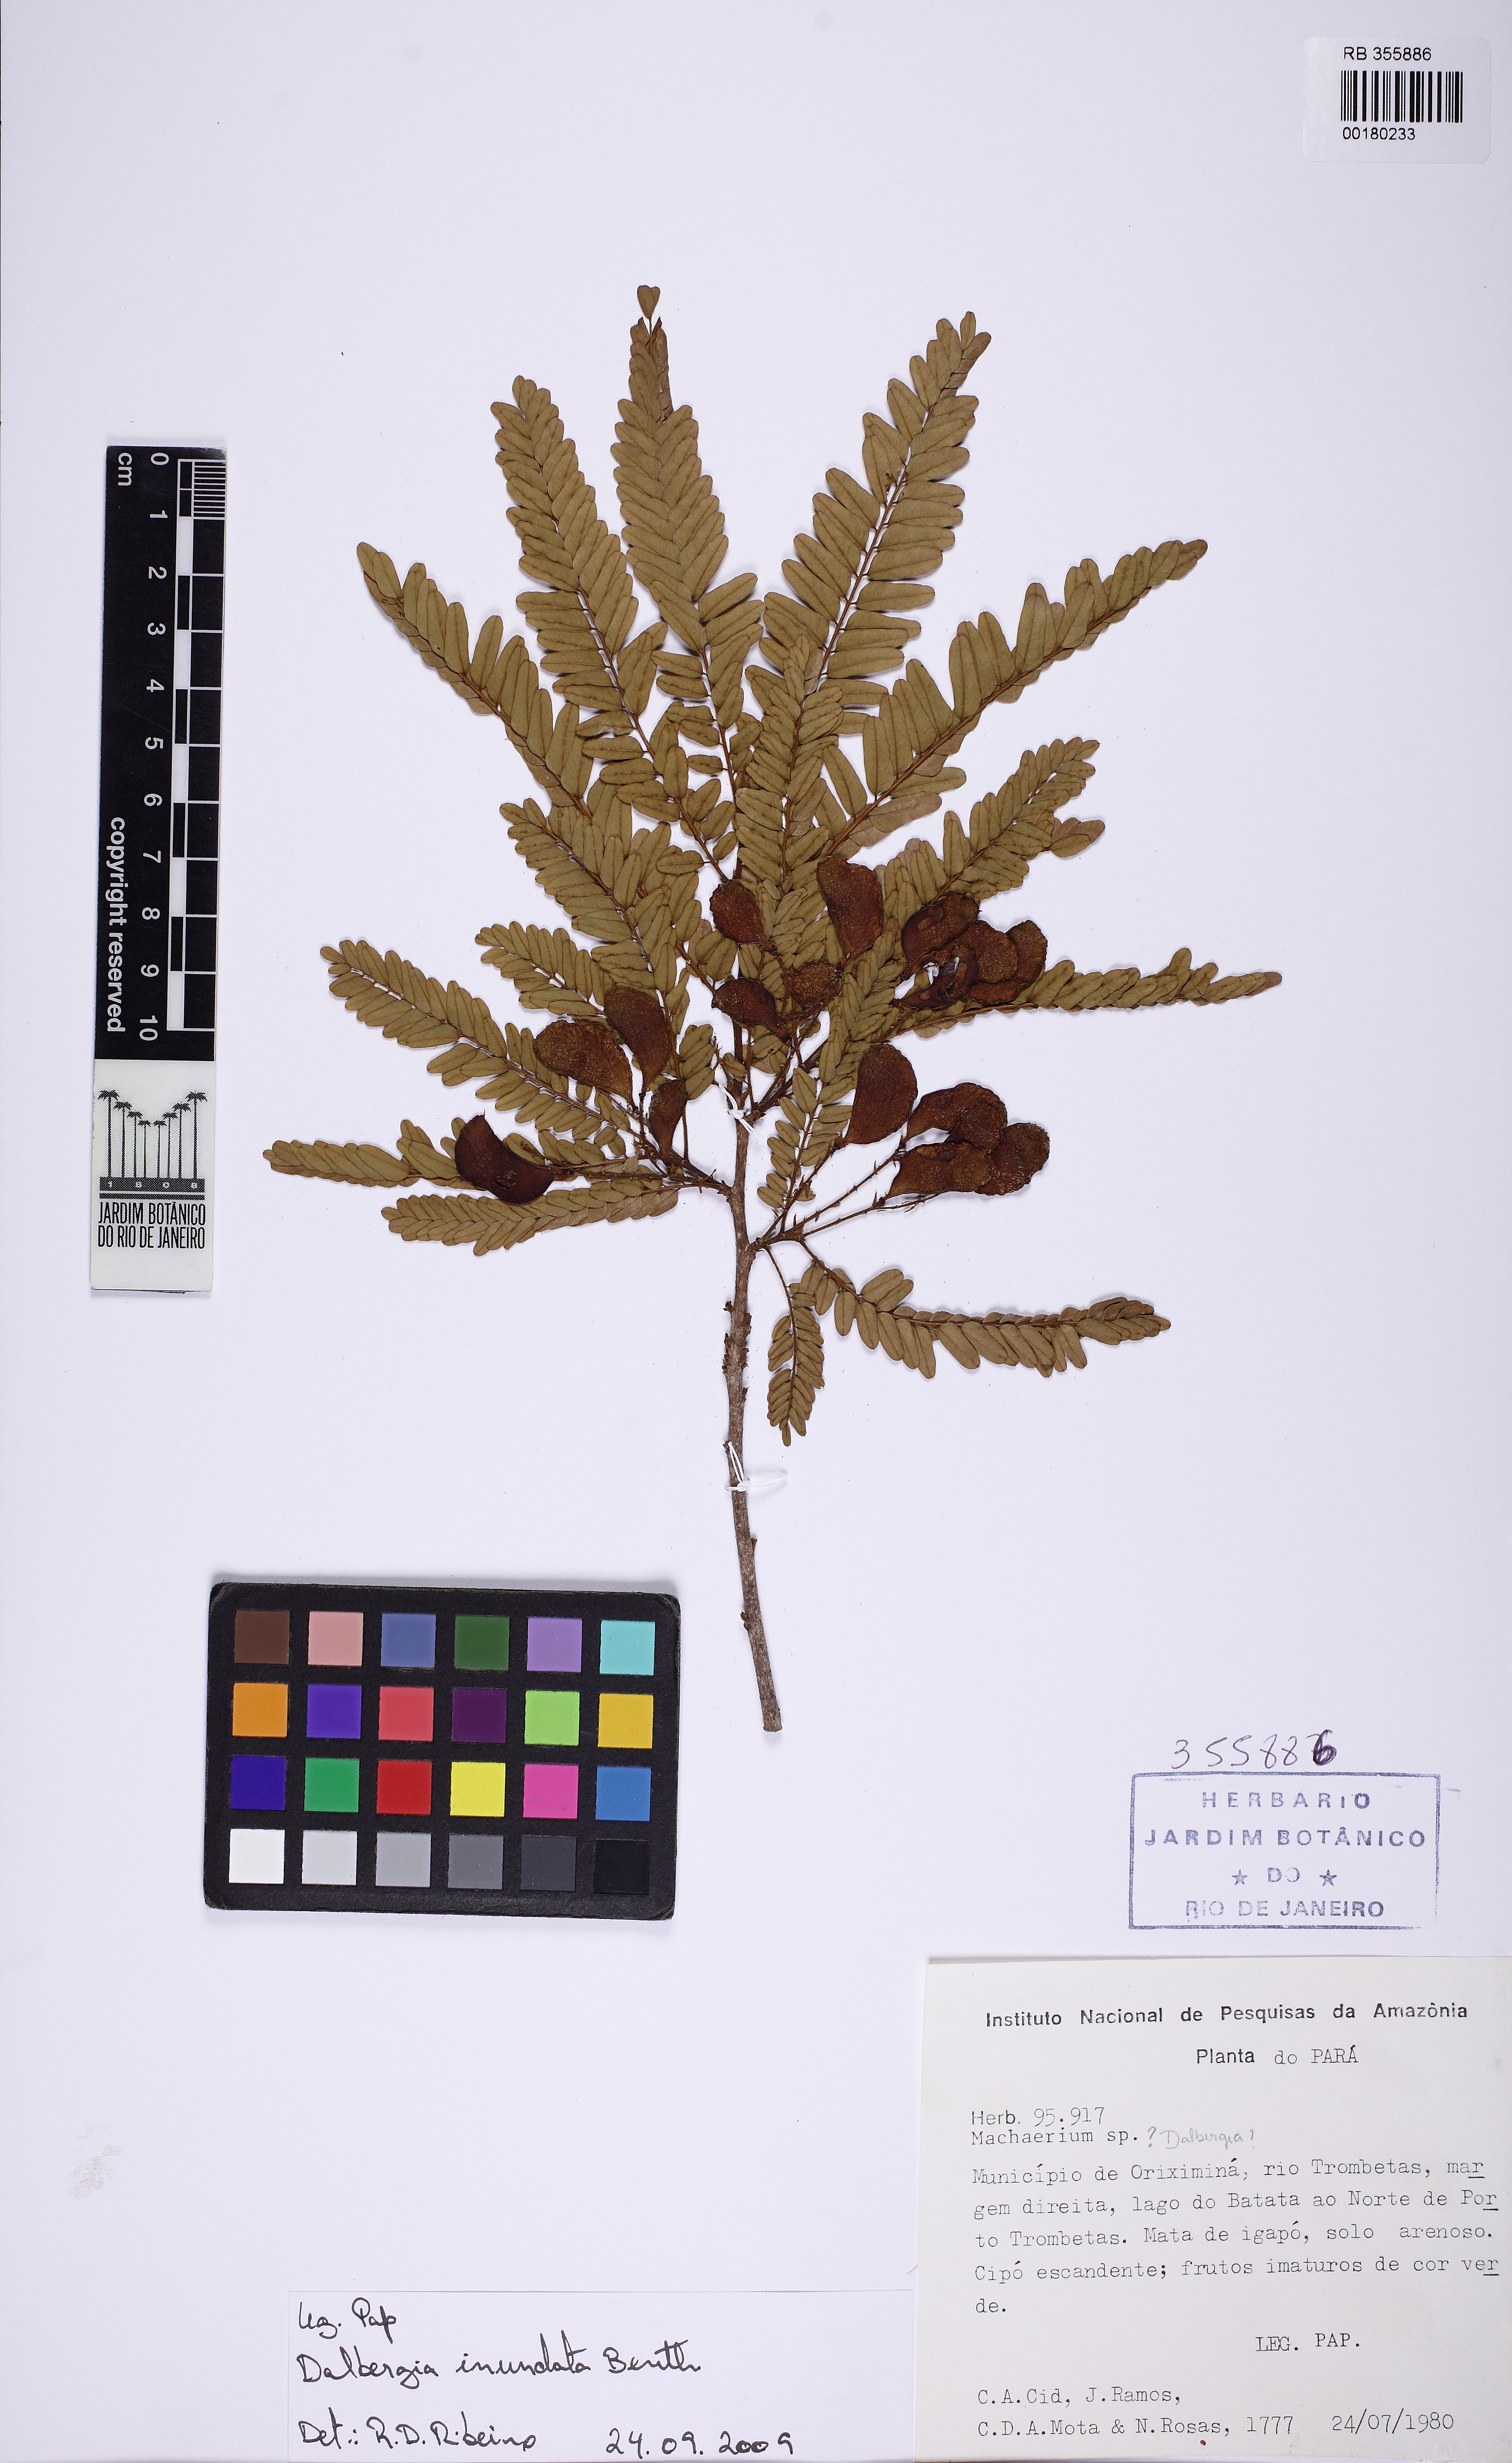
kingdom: Plantae
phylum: Tracheophyta
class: Magnoliopsida
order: Fabales
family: Fabaceae
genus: Dalbergia
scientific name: Dalbergia inundata
